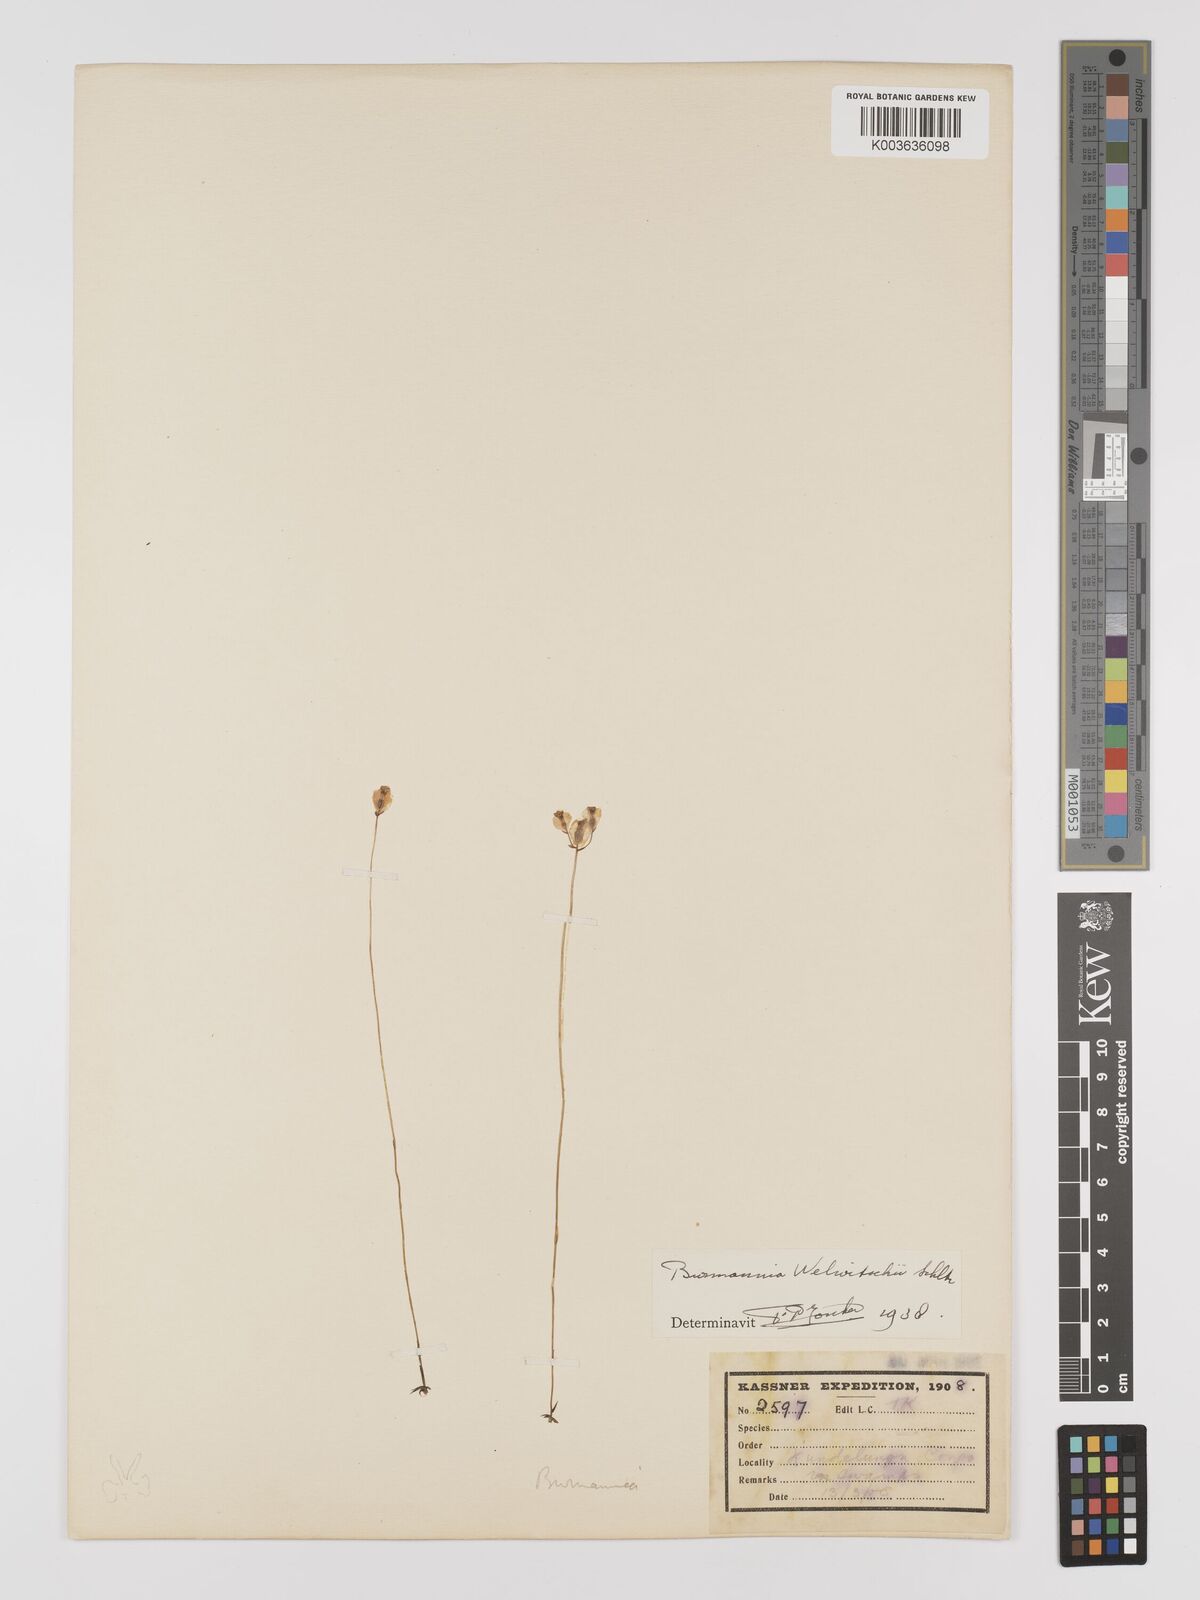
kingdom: Plantae
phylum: Tracheophyta
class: Liliopsida
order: Dioscoreales
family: Burmanniaceae
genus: Burmannia
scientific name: Burmannia madagascariensis
